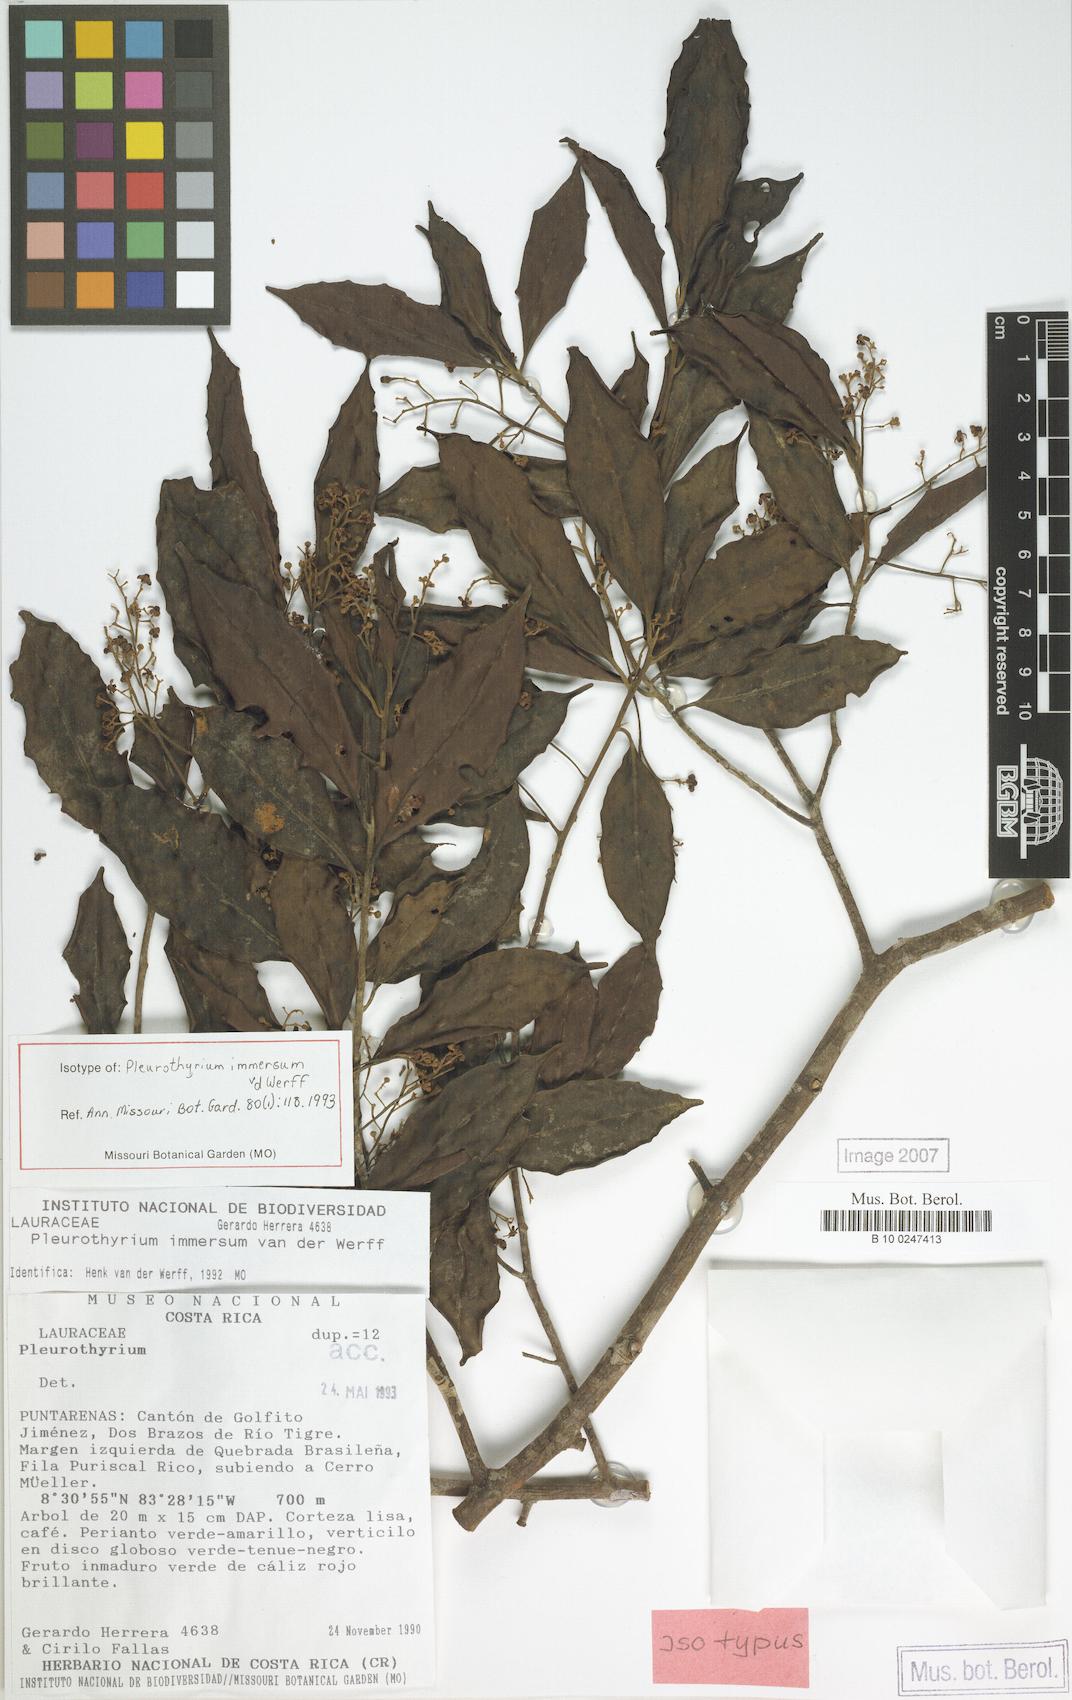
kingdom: Plantae
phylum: Tracheophyta
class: Magnoliopsida
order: Laurales
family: Lauraceae
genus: Pleurothyrium
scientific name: Pleurothyrium immersum
